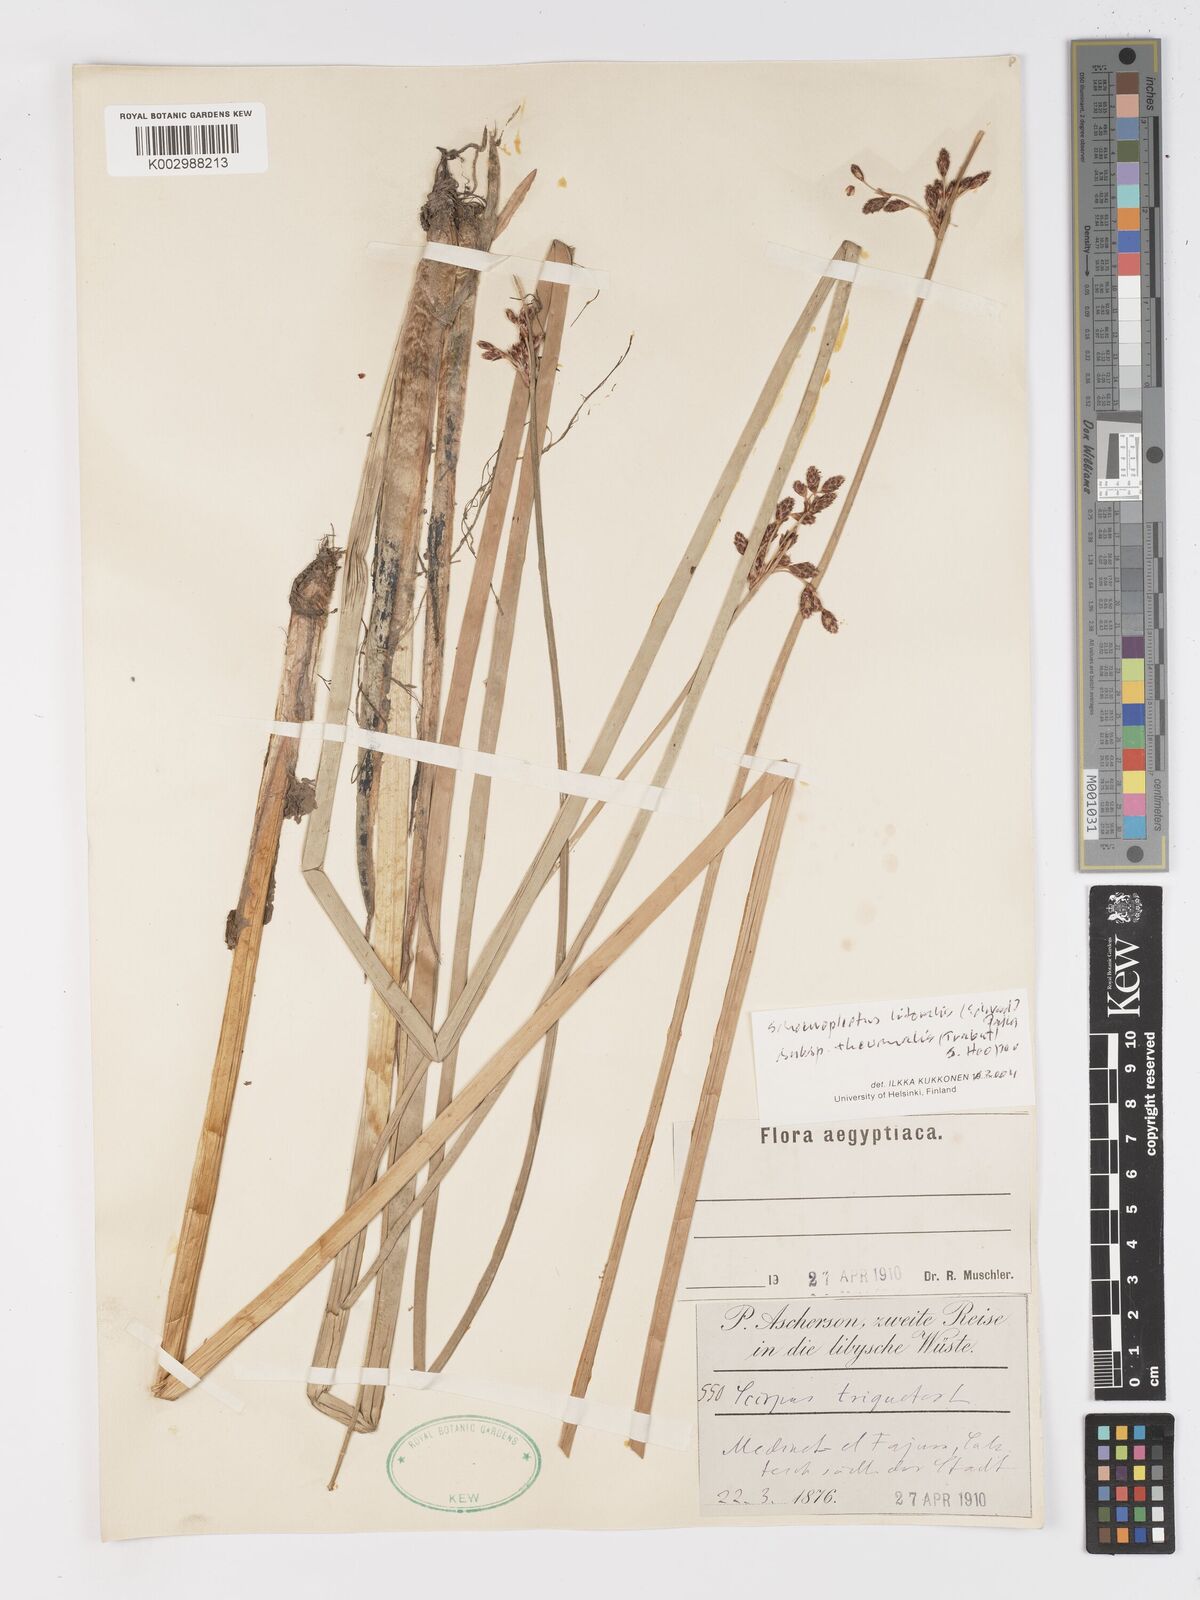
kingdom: Plantae
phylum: Tracheophyta
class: Liliopsida
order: Poales
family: Cyperaceae
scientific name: Cyperaceae
